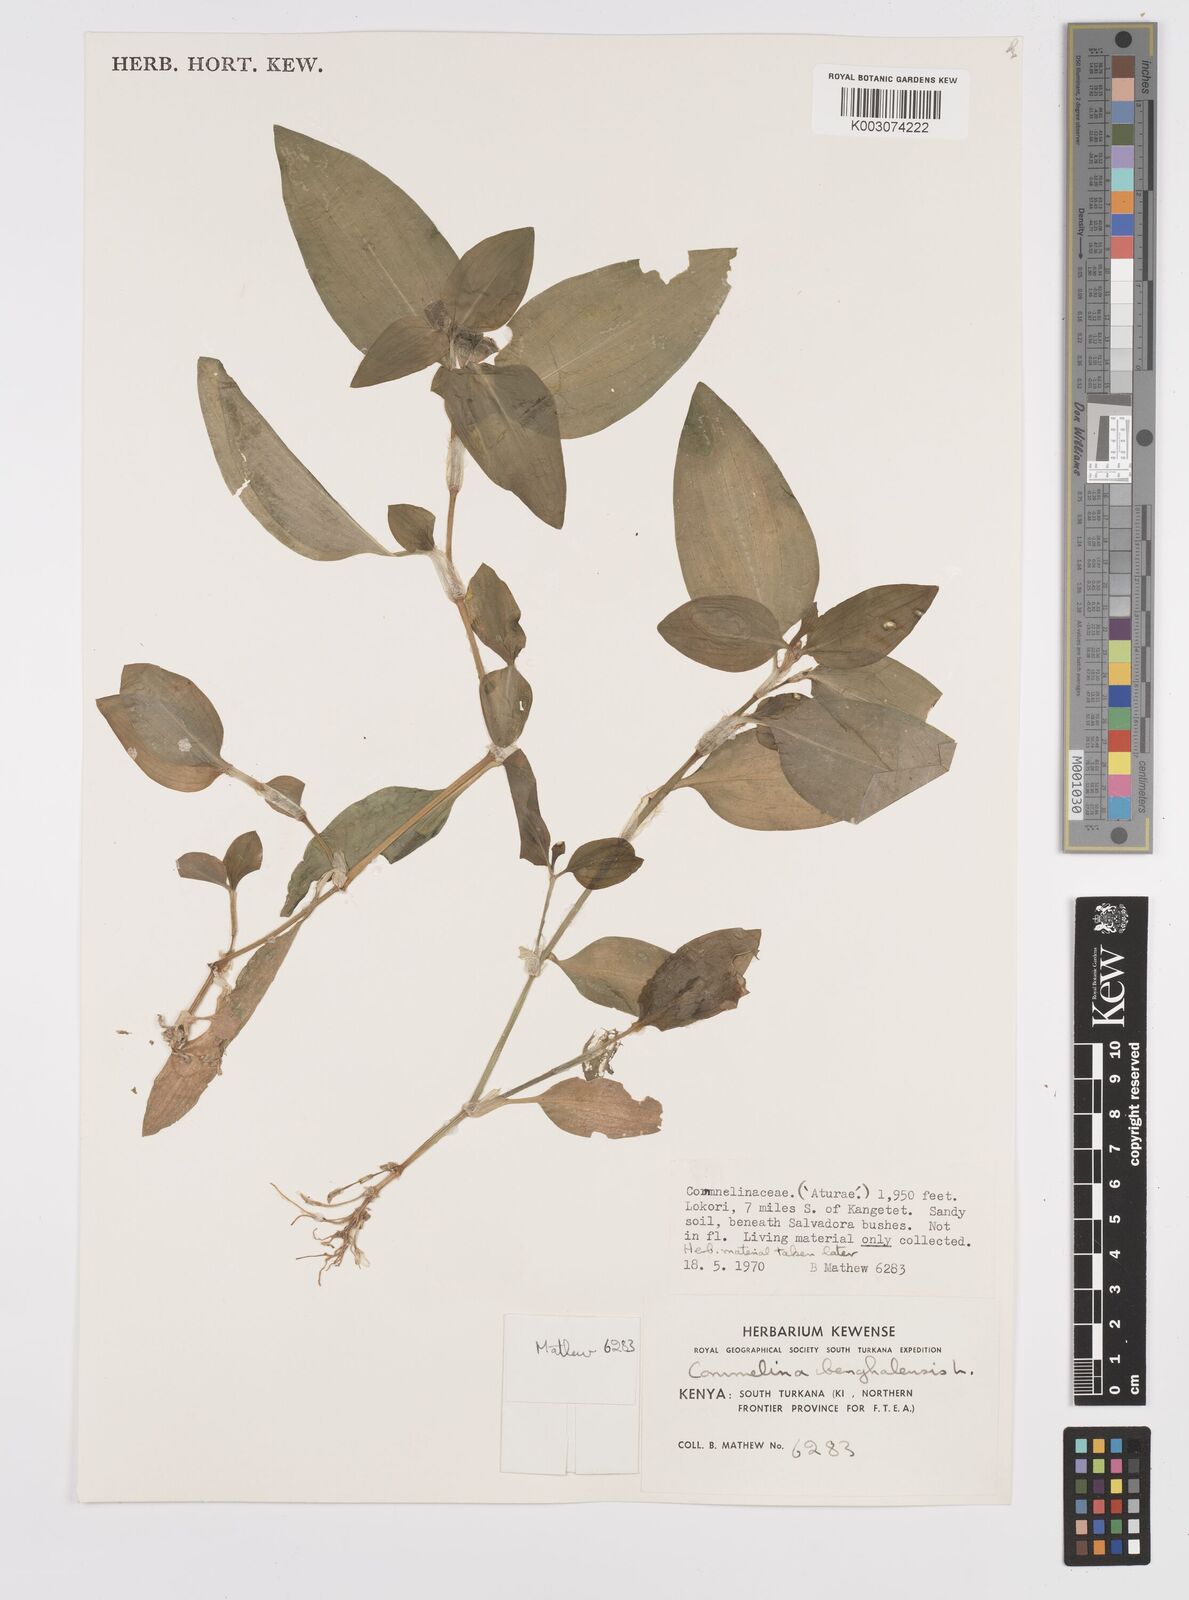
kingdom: Plantae
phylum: Tracheophyta
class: Liliopsida
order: Commelinales
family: Commelinaceae
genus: Commelina
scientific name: Commelina benghalensis
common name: Jio
